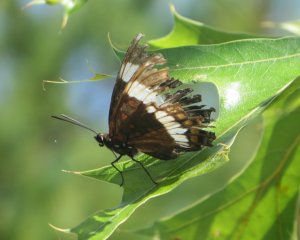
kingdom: Animalia
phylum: Arthropoda
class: Insecta
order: Lepidoptera
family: Nymphalidae
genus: Limenitis
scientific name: Limenitis arthemis
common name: Red-spotted Admiral
